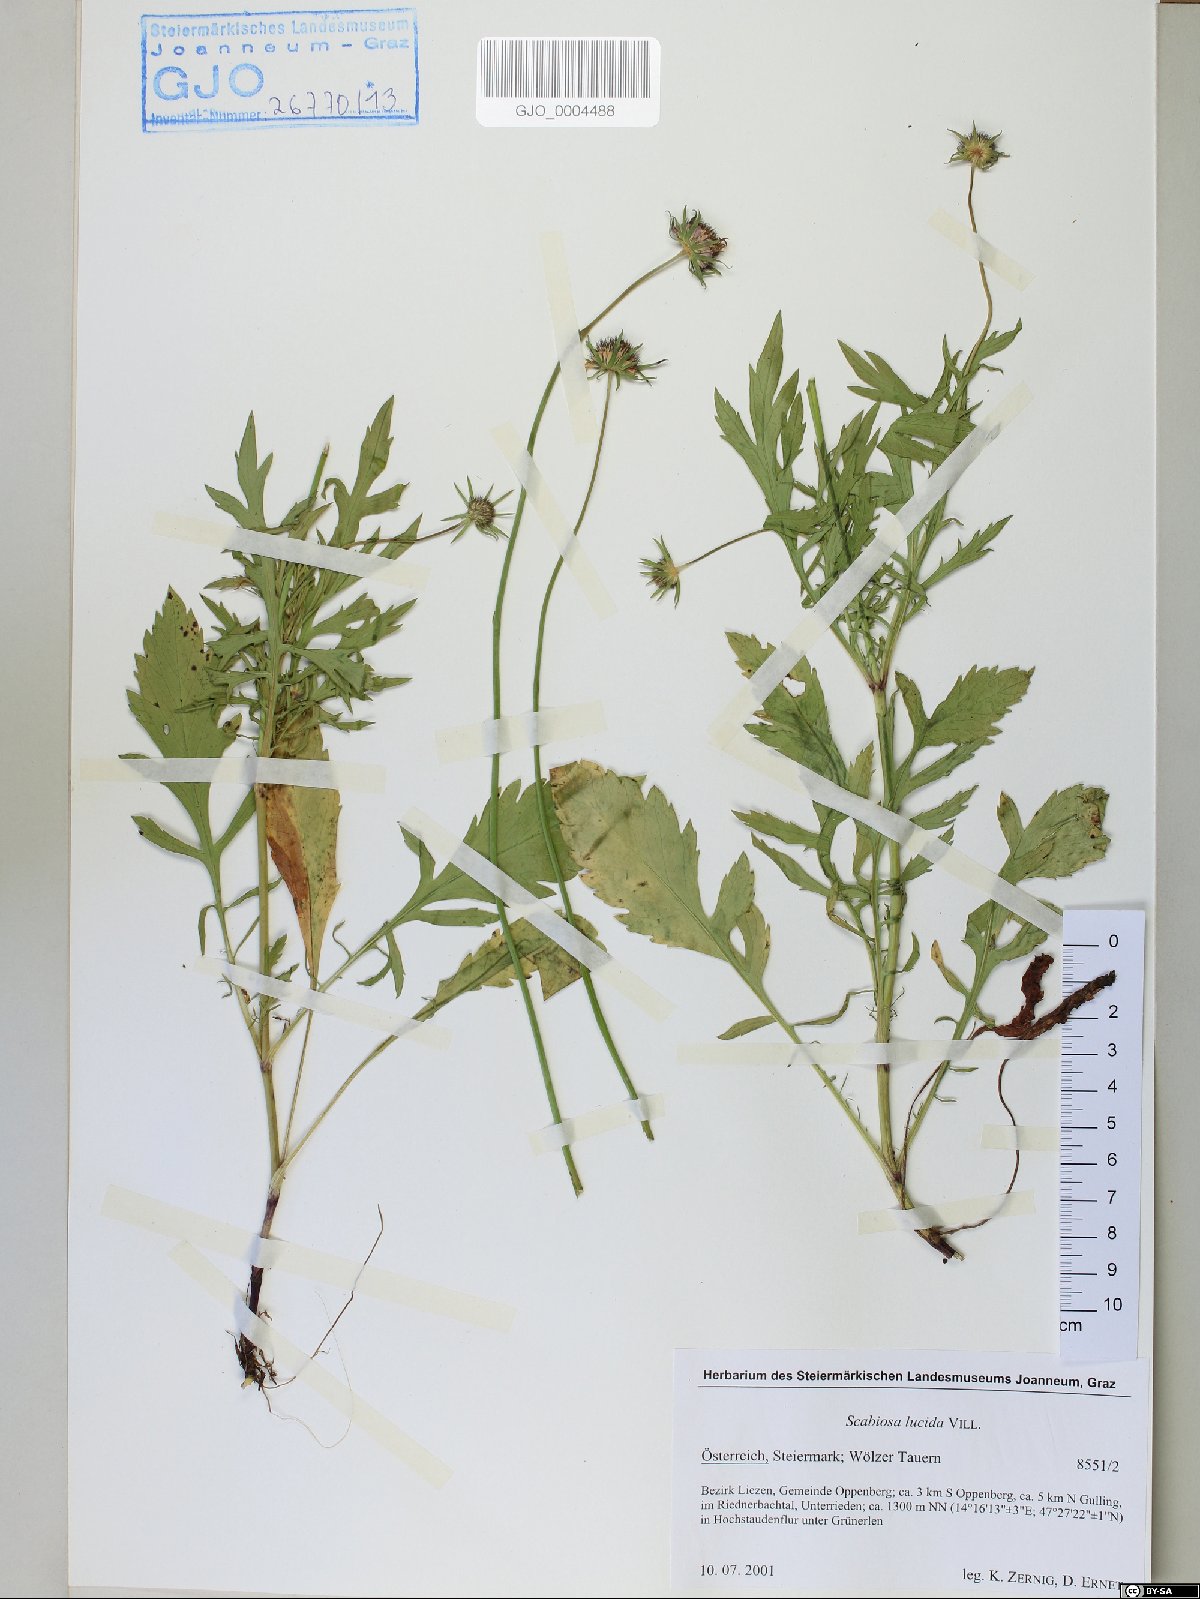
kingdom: Plantae
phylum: Tracheophyta
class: Magnoliopsida
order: Dipsacales
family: Caprifoliaceae
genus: Scabiosa
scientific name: Scabiosa lucida
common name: Shining scabious
